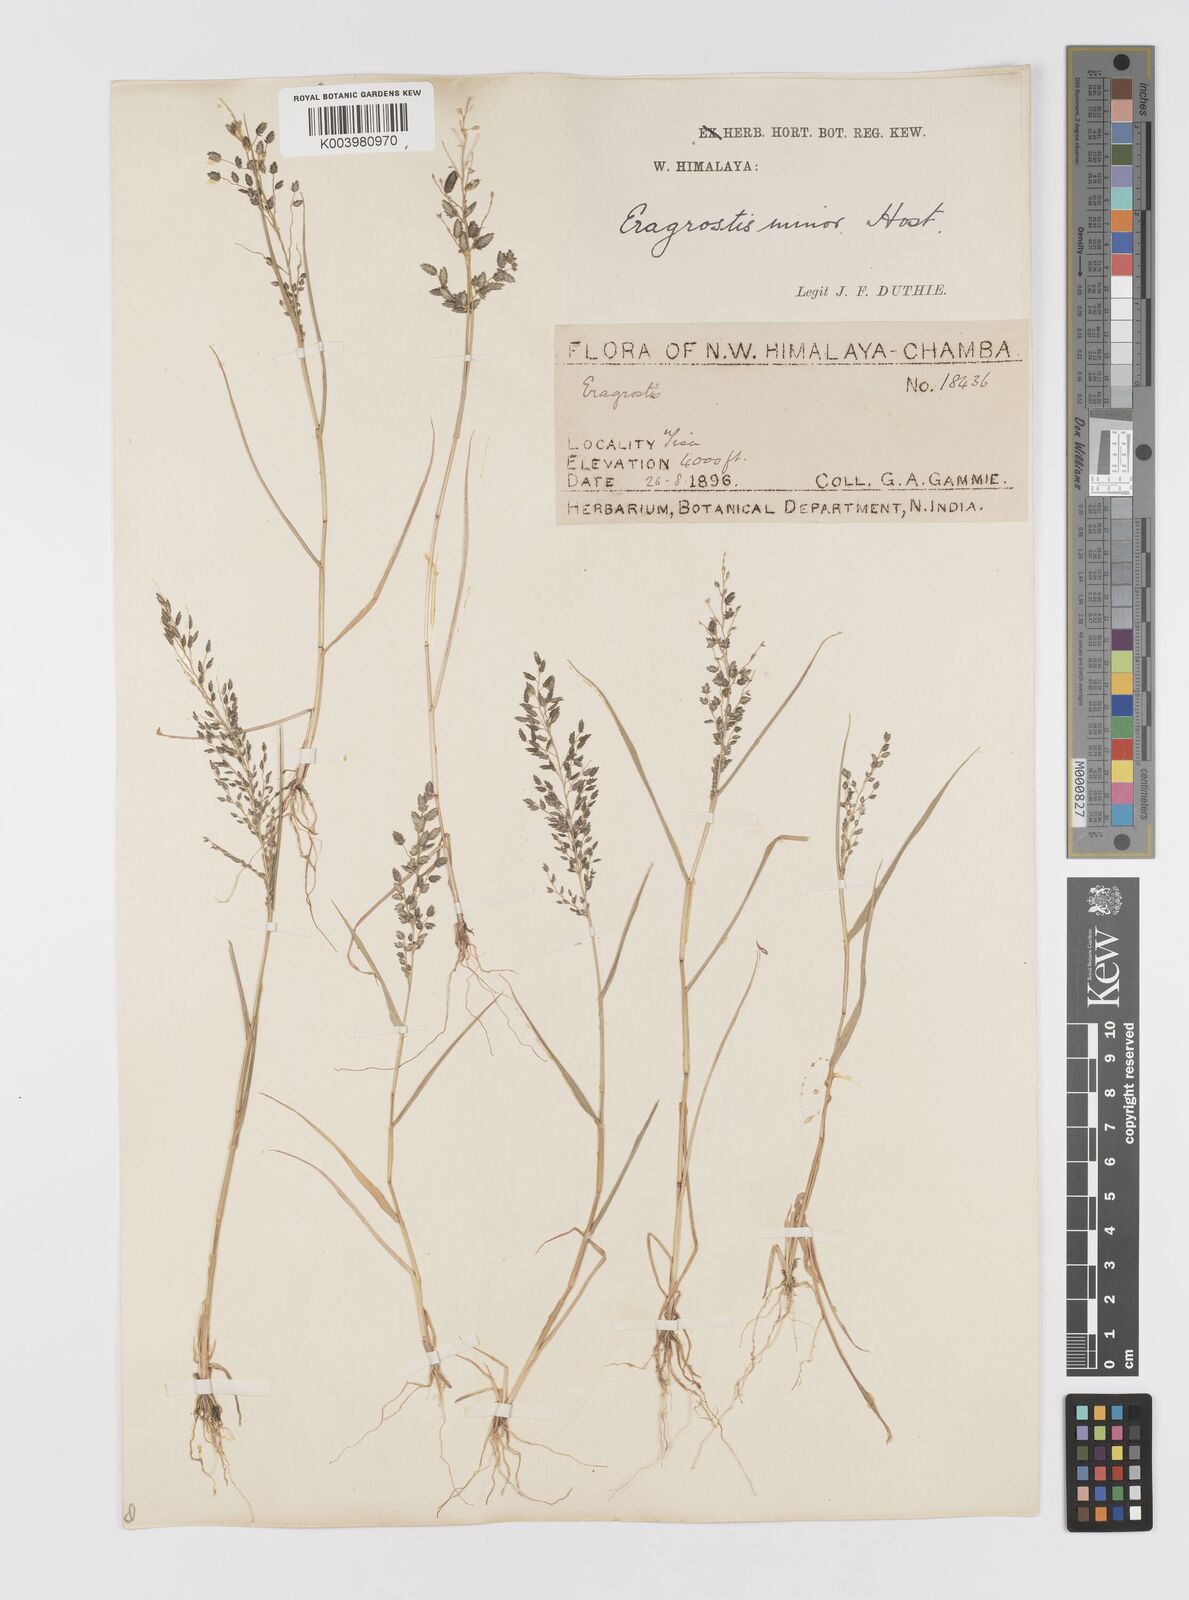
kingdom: Plantae
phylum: Tracheophyta
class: Liliopsida
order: Poales
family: Poaceae
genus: Eragrostis
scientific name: Eragrostis minor
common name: Small love-grass
